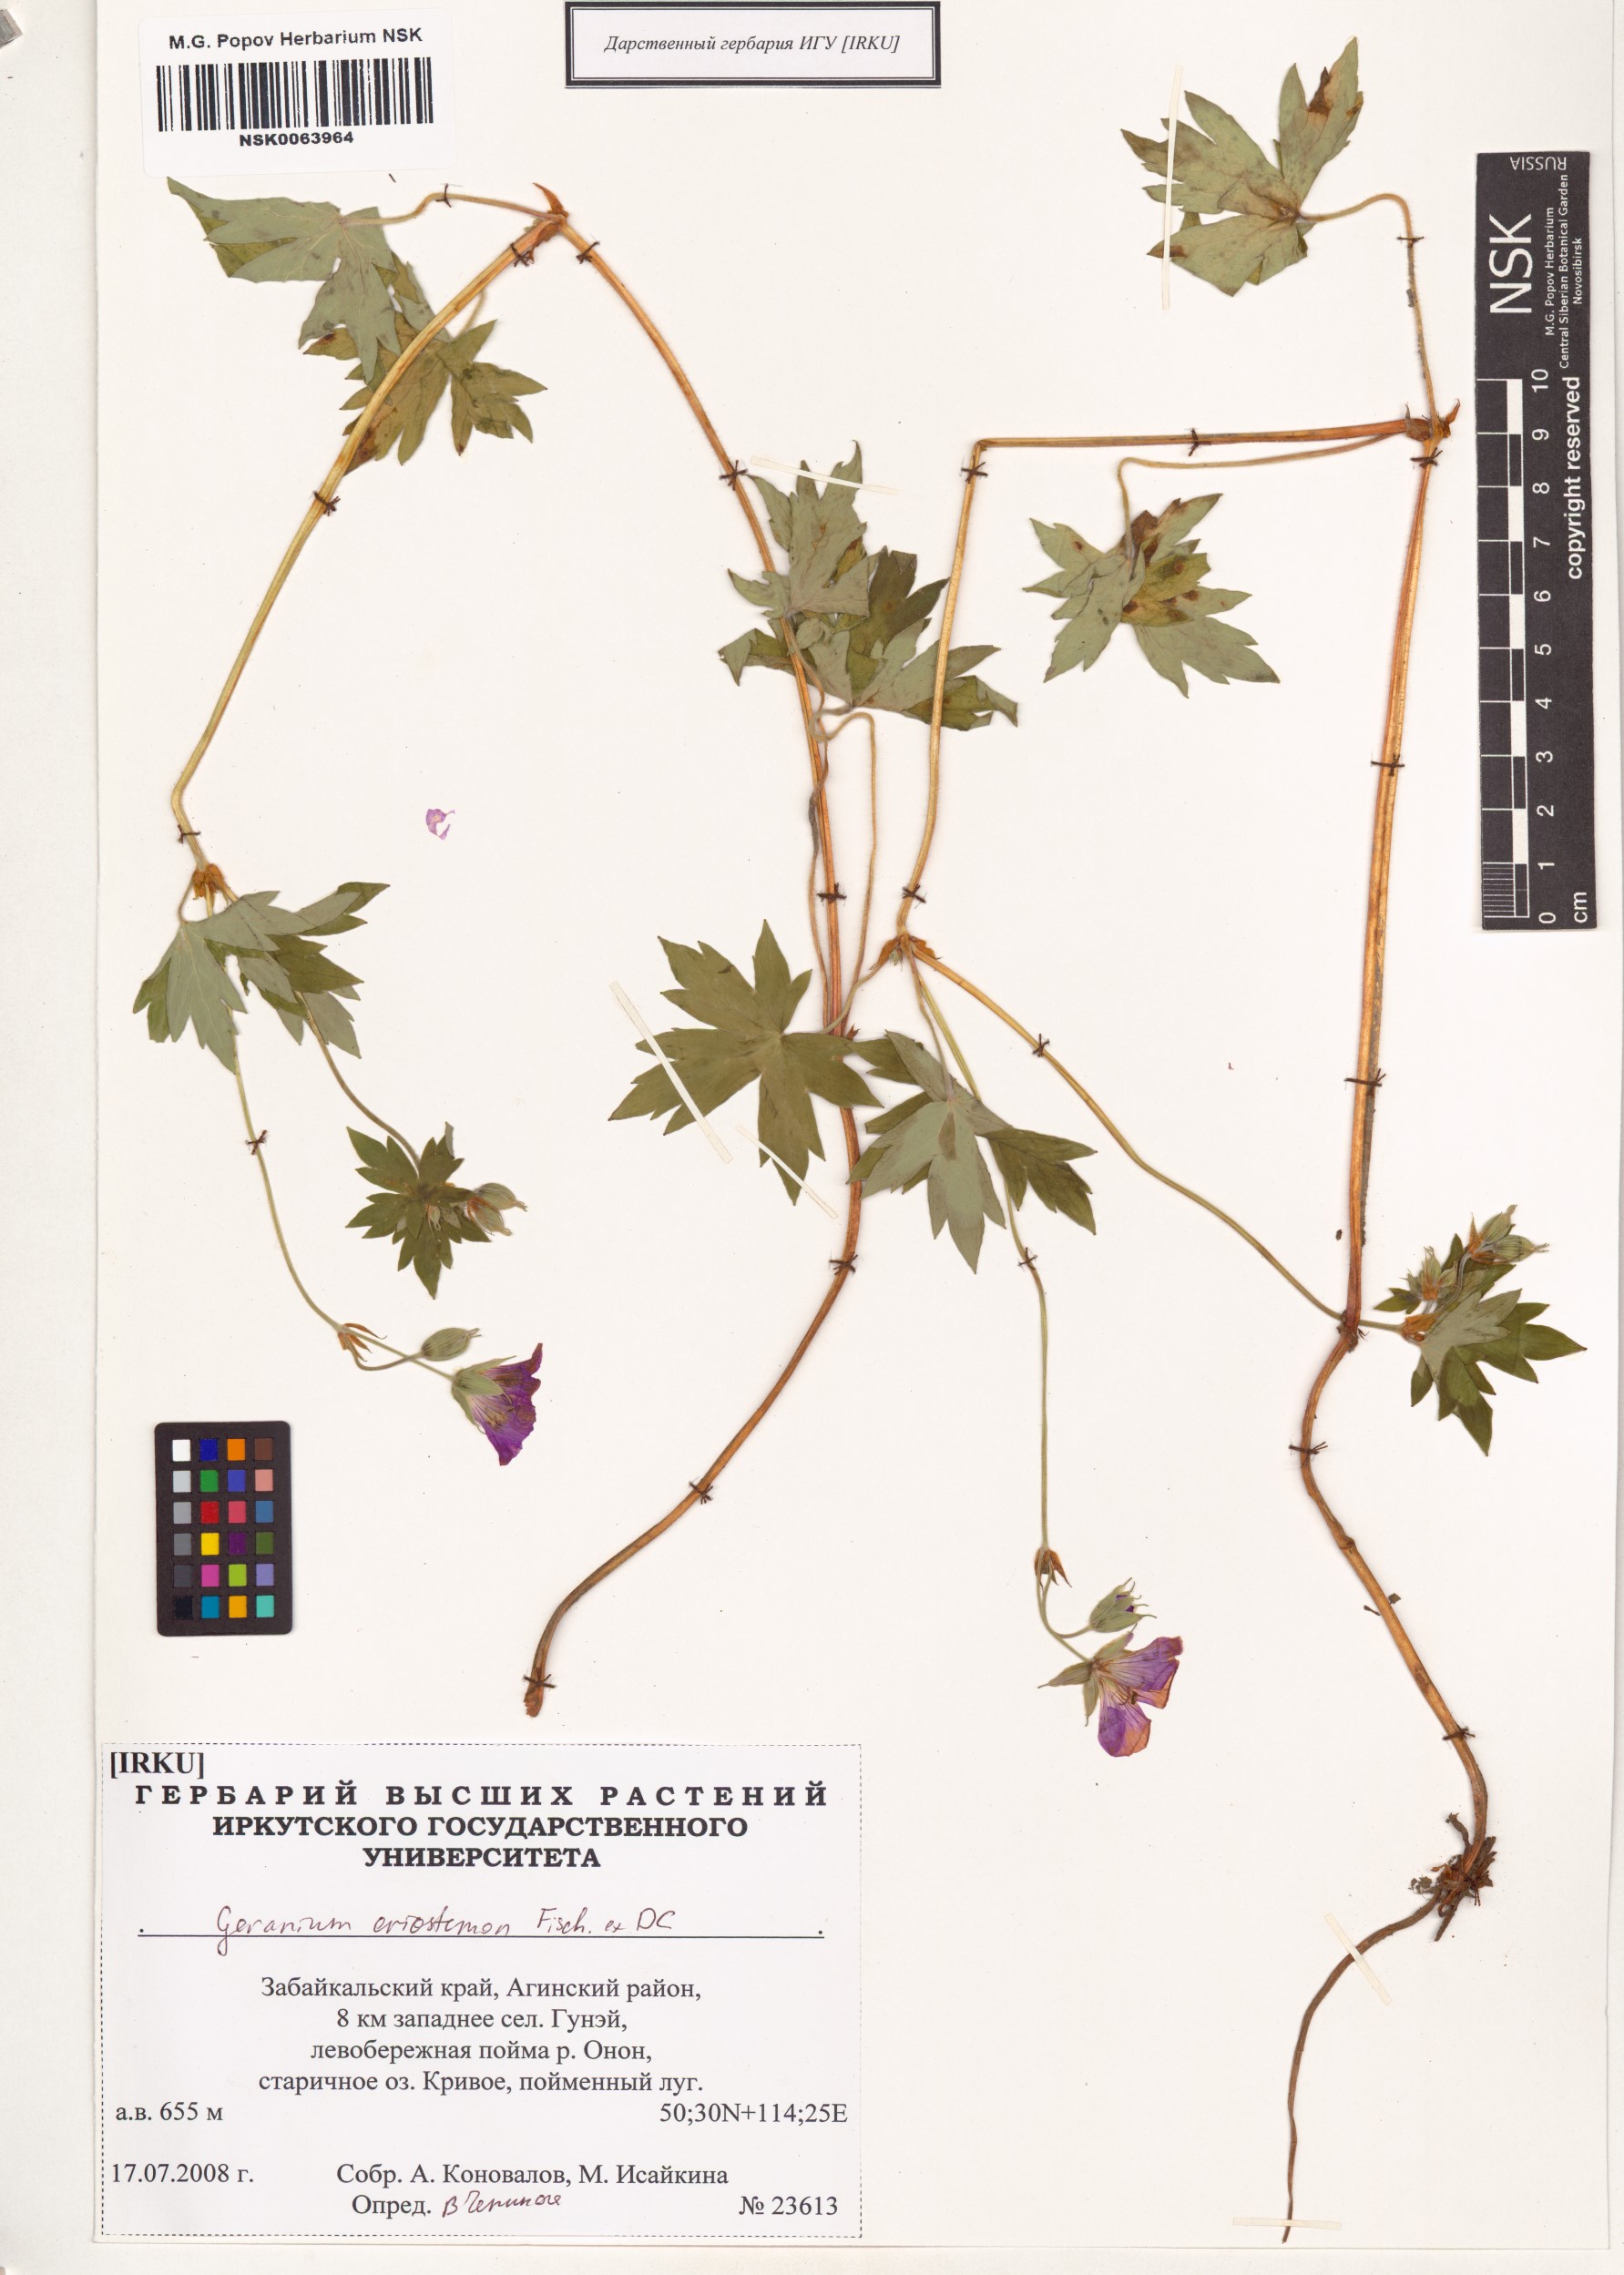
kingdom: Plantae
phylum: Tracheophyta
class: Magnoliopsida
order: Geraniales
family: Geraniaceae
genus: Geranium
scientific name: Geranium platyanthum
